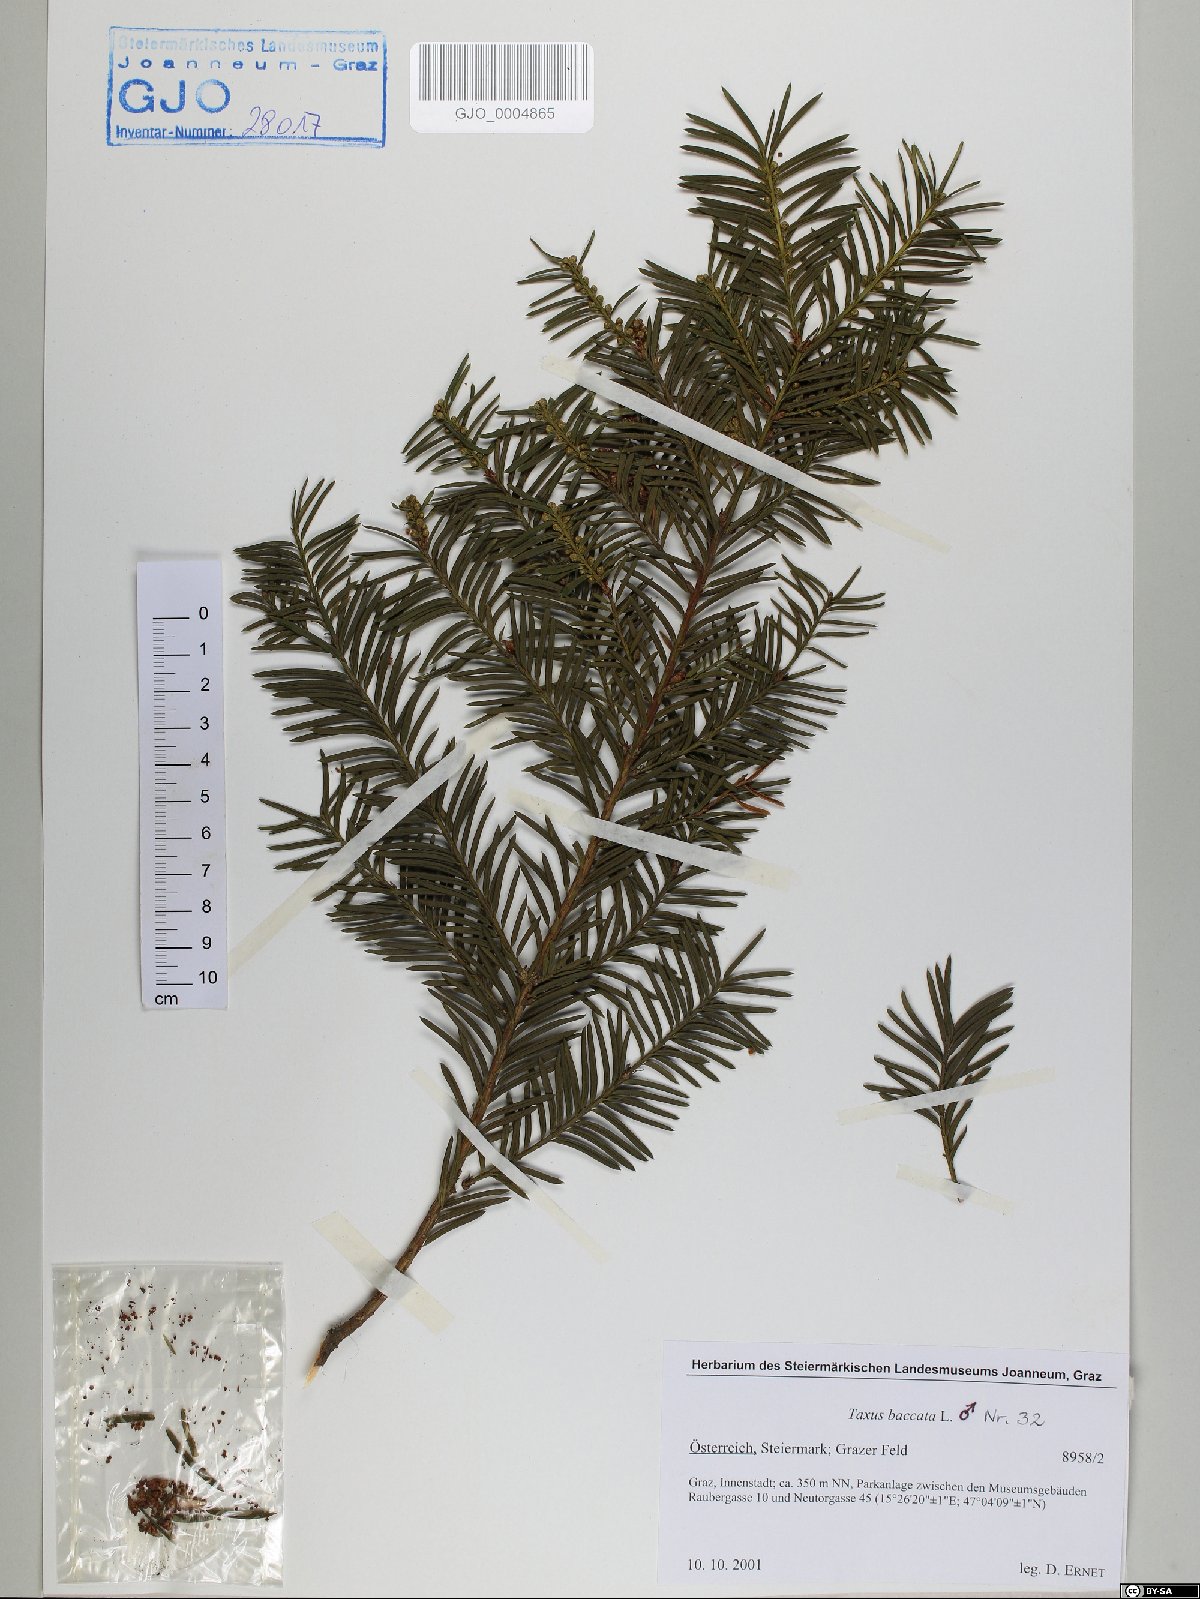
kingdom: Plantae
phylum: Tracheophyta
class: Pinopsida
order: Pinales
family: Taxaceae
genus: Taxus
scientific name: Taxus baccata
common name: Yew
